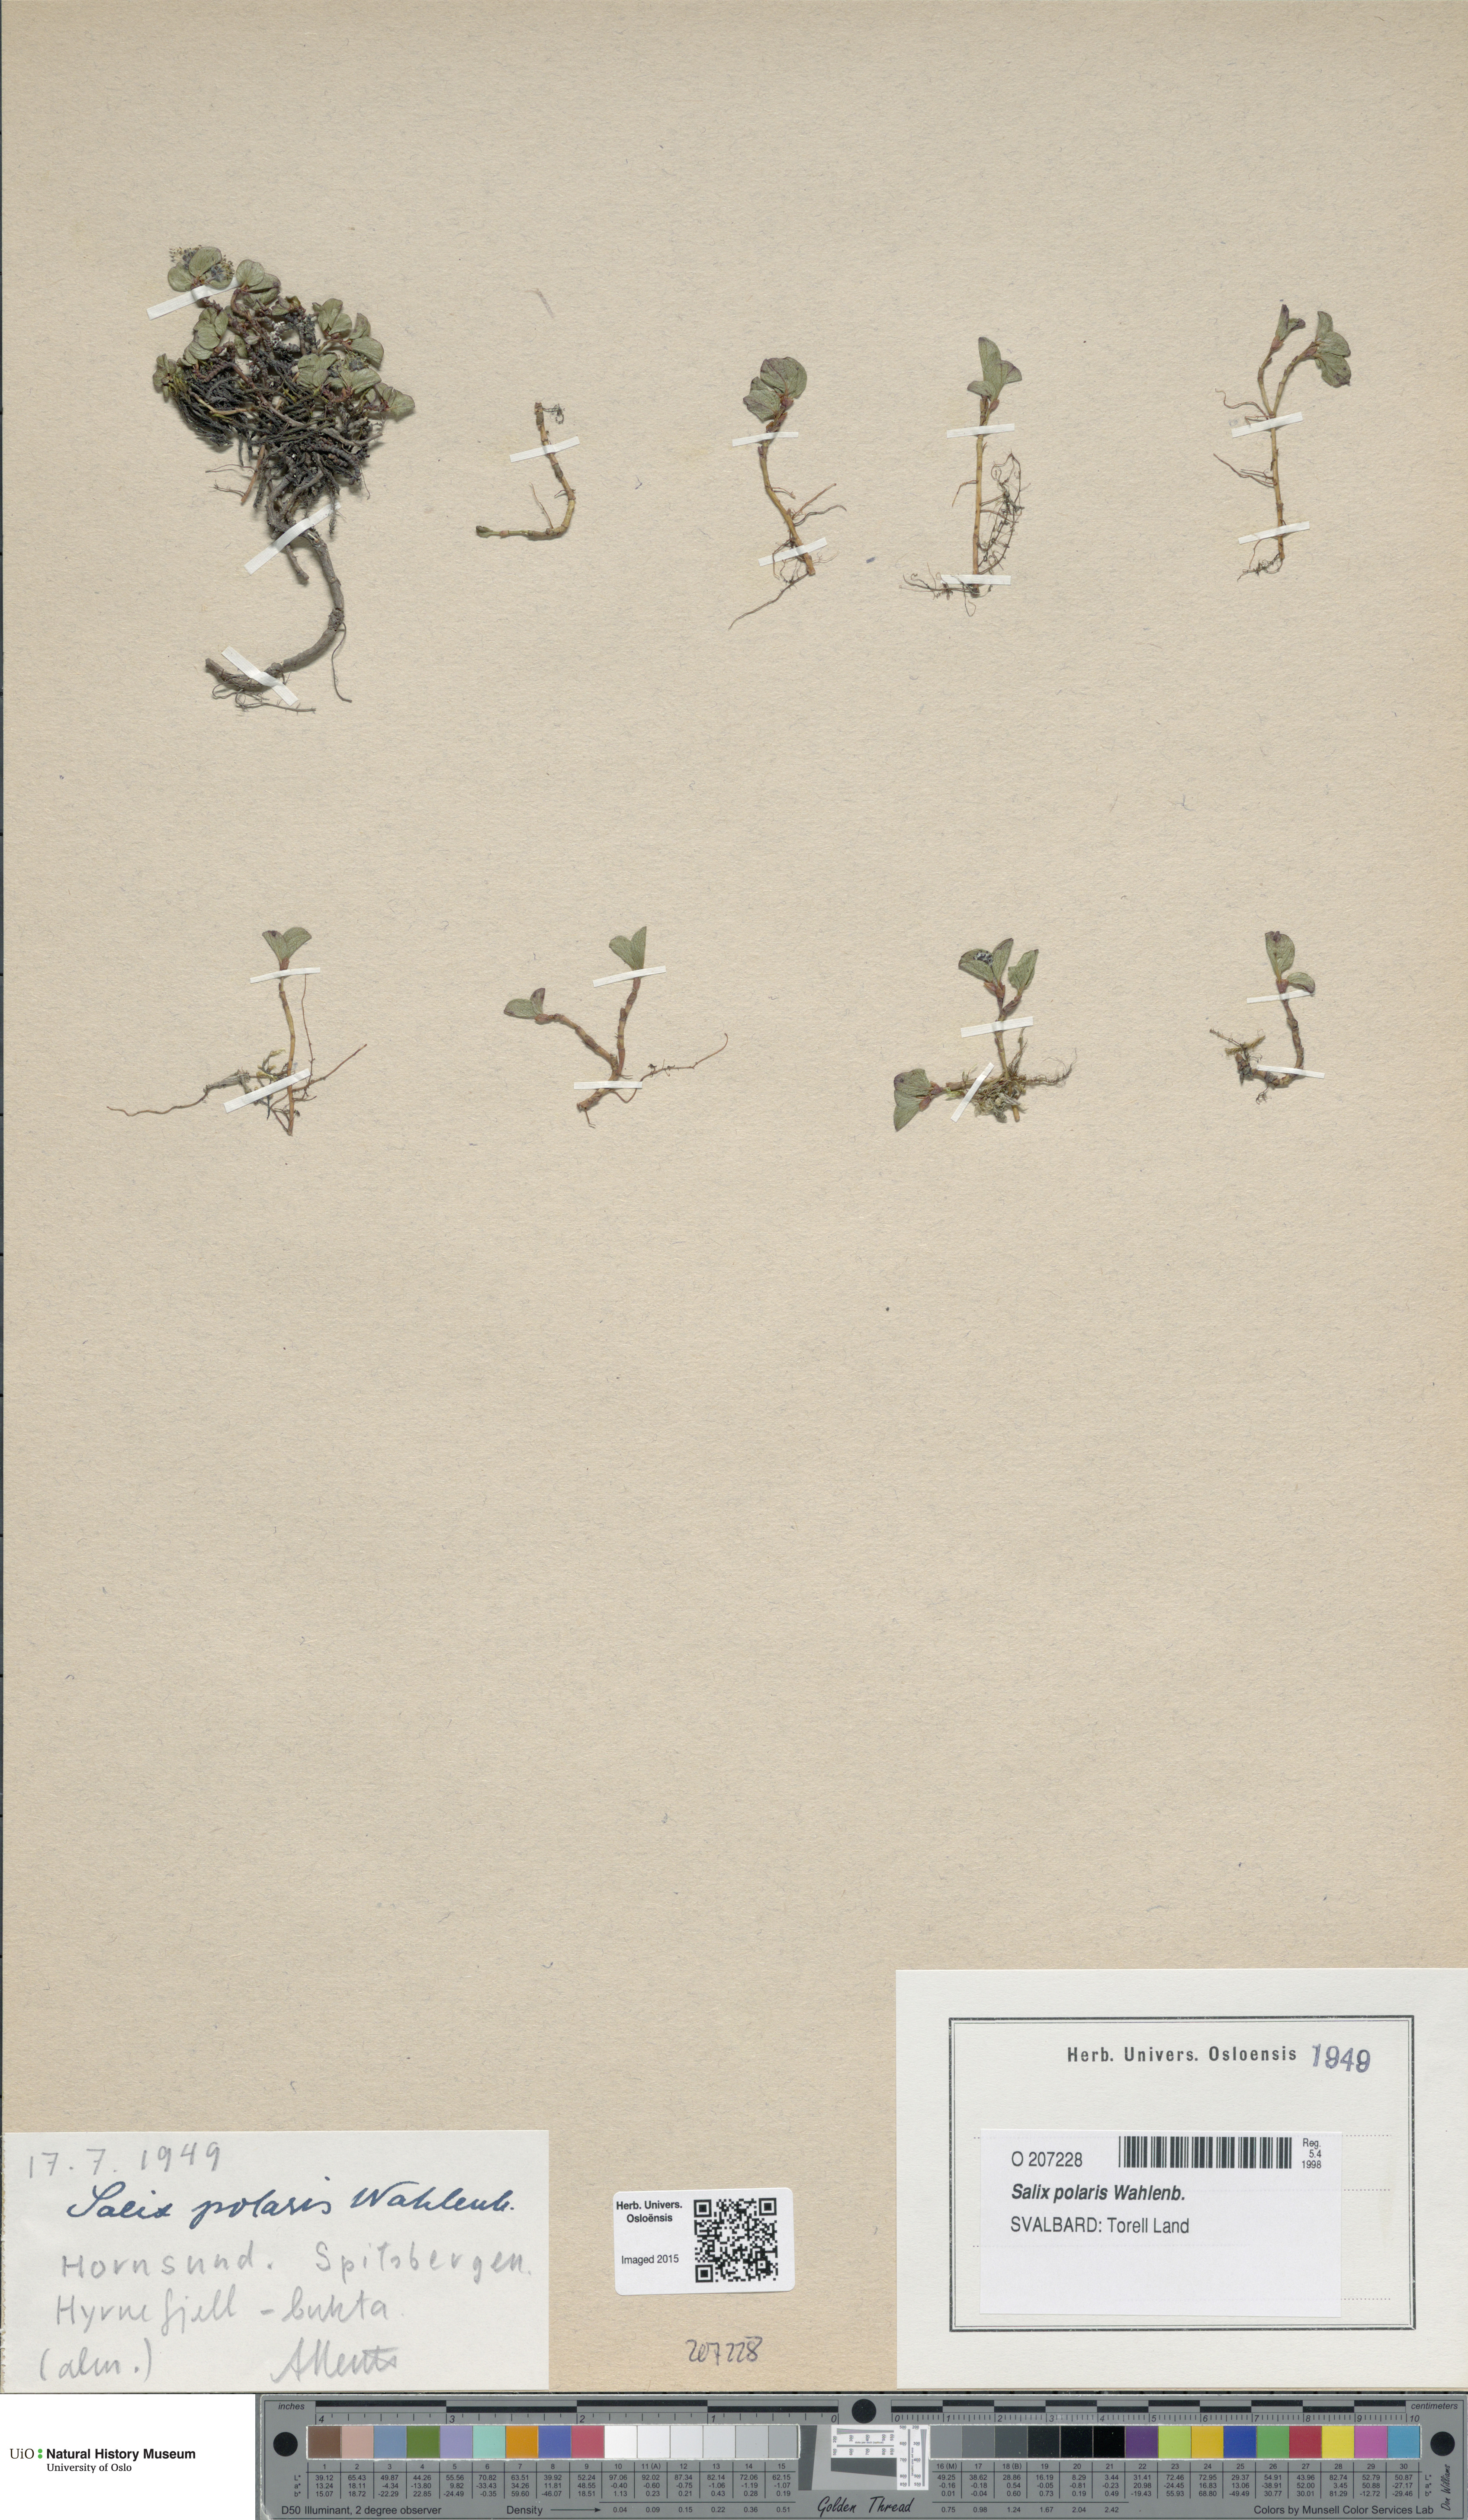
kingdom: Plantae
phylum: Tracheophyta
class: Magnoliopsida
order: Malpighiales
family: Salicaceae
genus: Salix
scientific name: Salix polaris
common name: Polar willow
